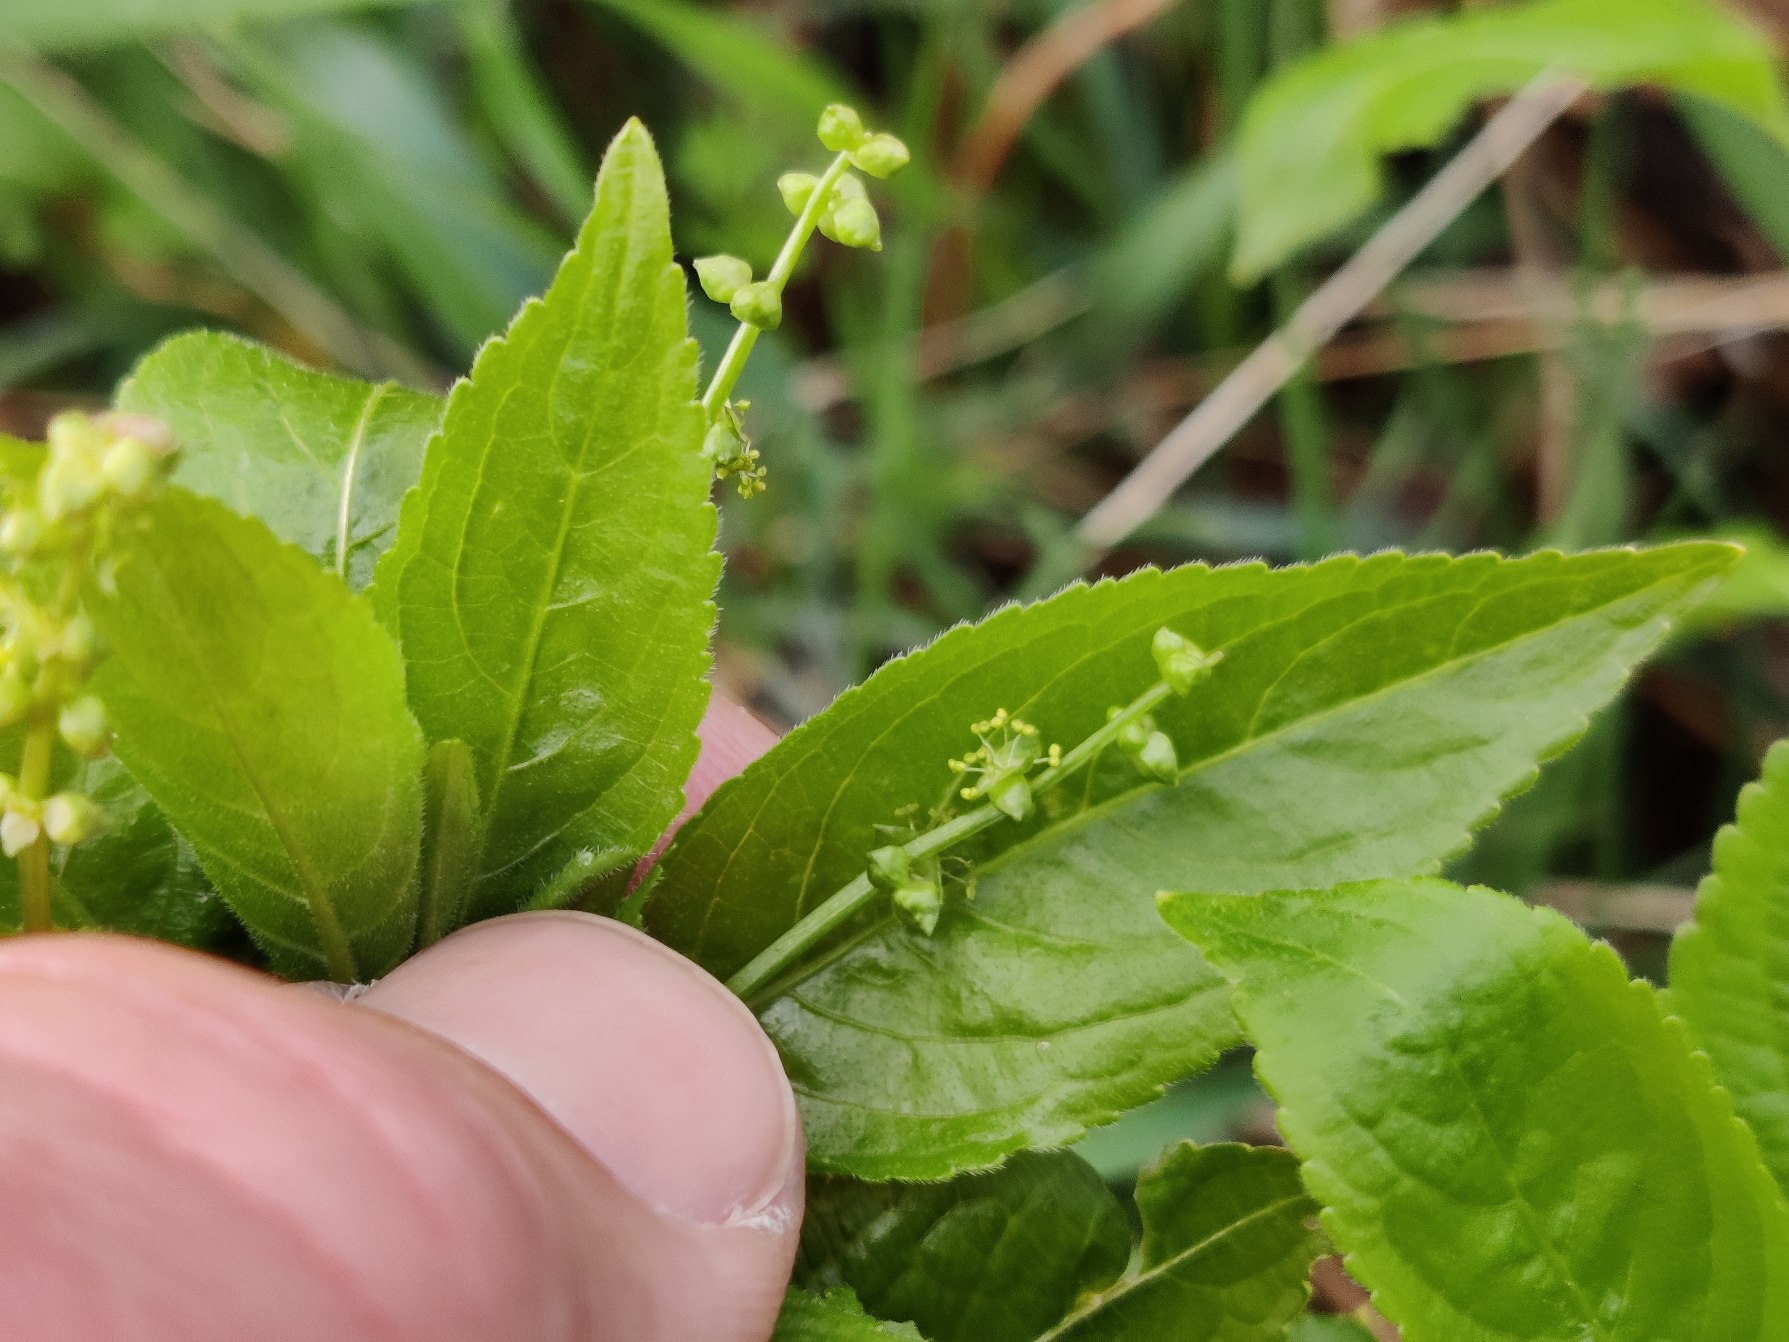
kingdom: Plantae
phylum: Tracheophyta
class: Magnoliopsida
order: Malpighiales
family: Euphorbiaceae
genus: Mercurialis
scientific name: Mercurialis perennis
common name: Almindelig bingelurt
